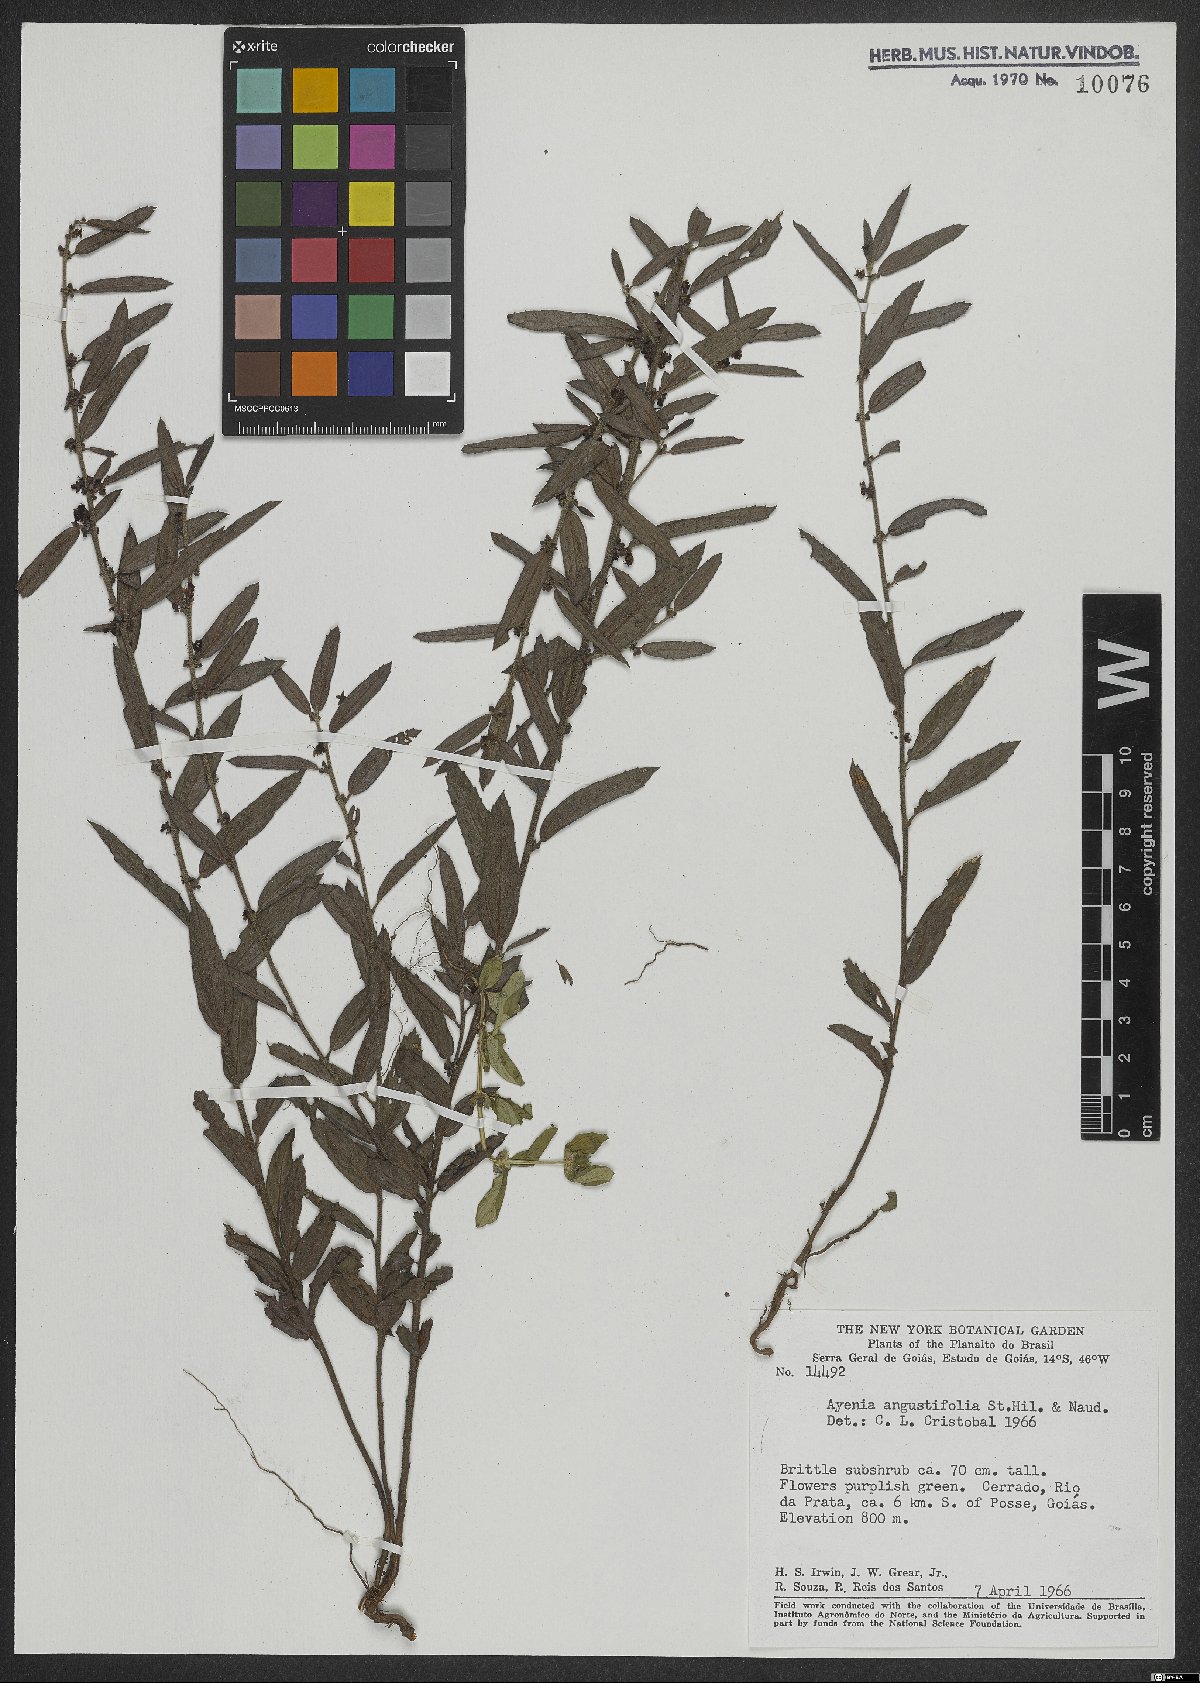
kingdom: Plantae
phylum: Tracheophyta
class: Magnoliopsida
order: Malvales
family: Malvaceae
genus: Ayenia
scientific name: Ayenia angustifolia
